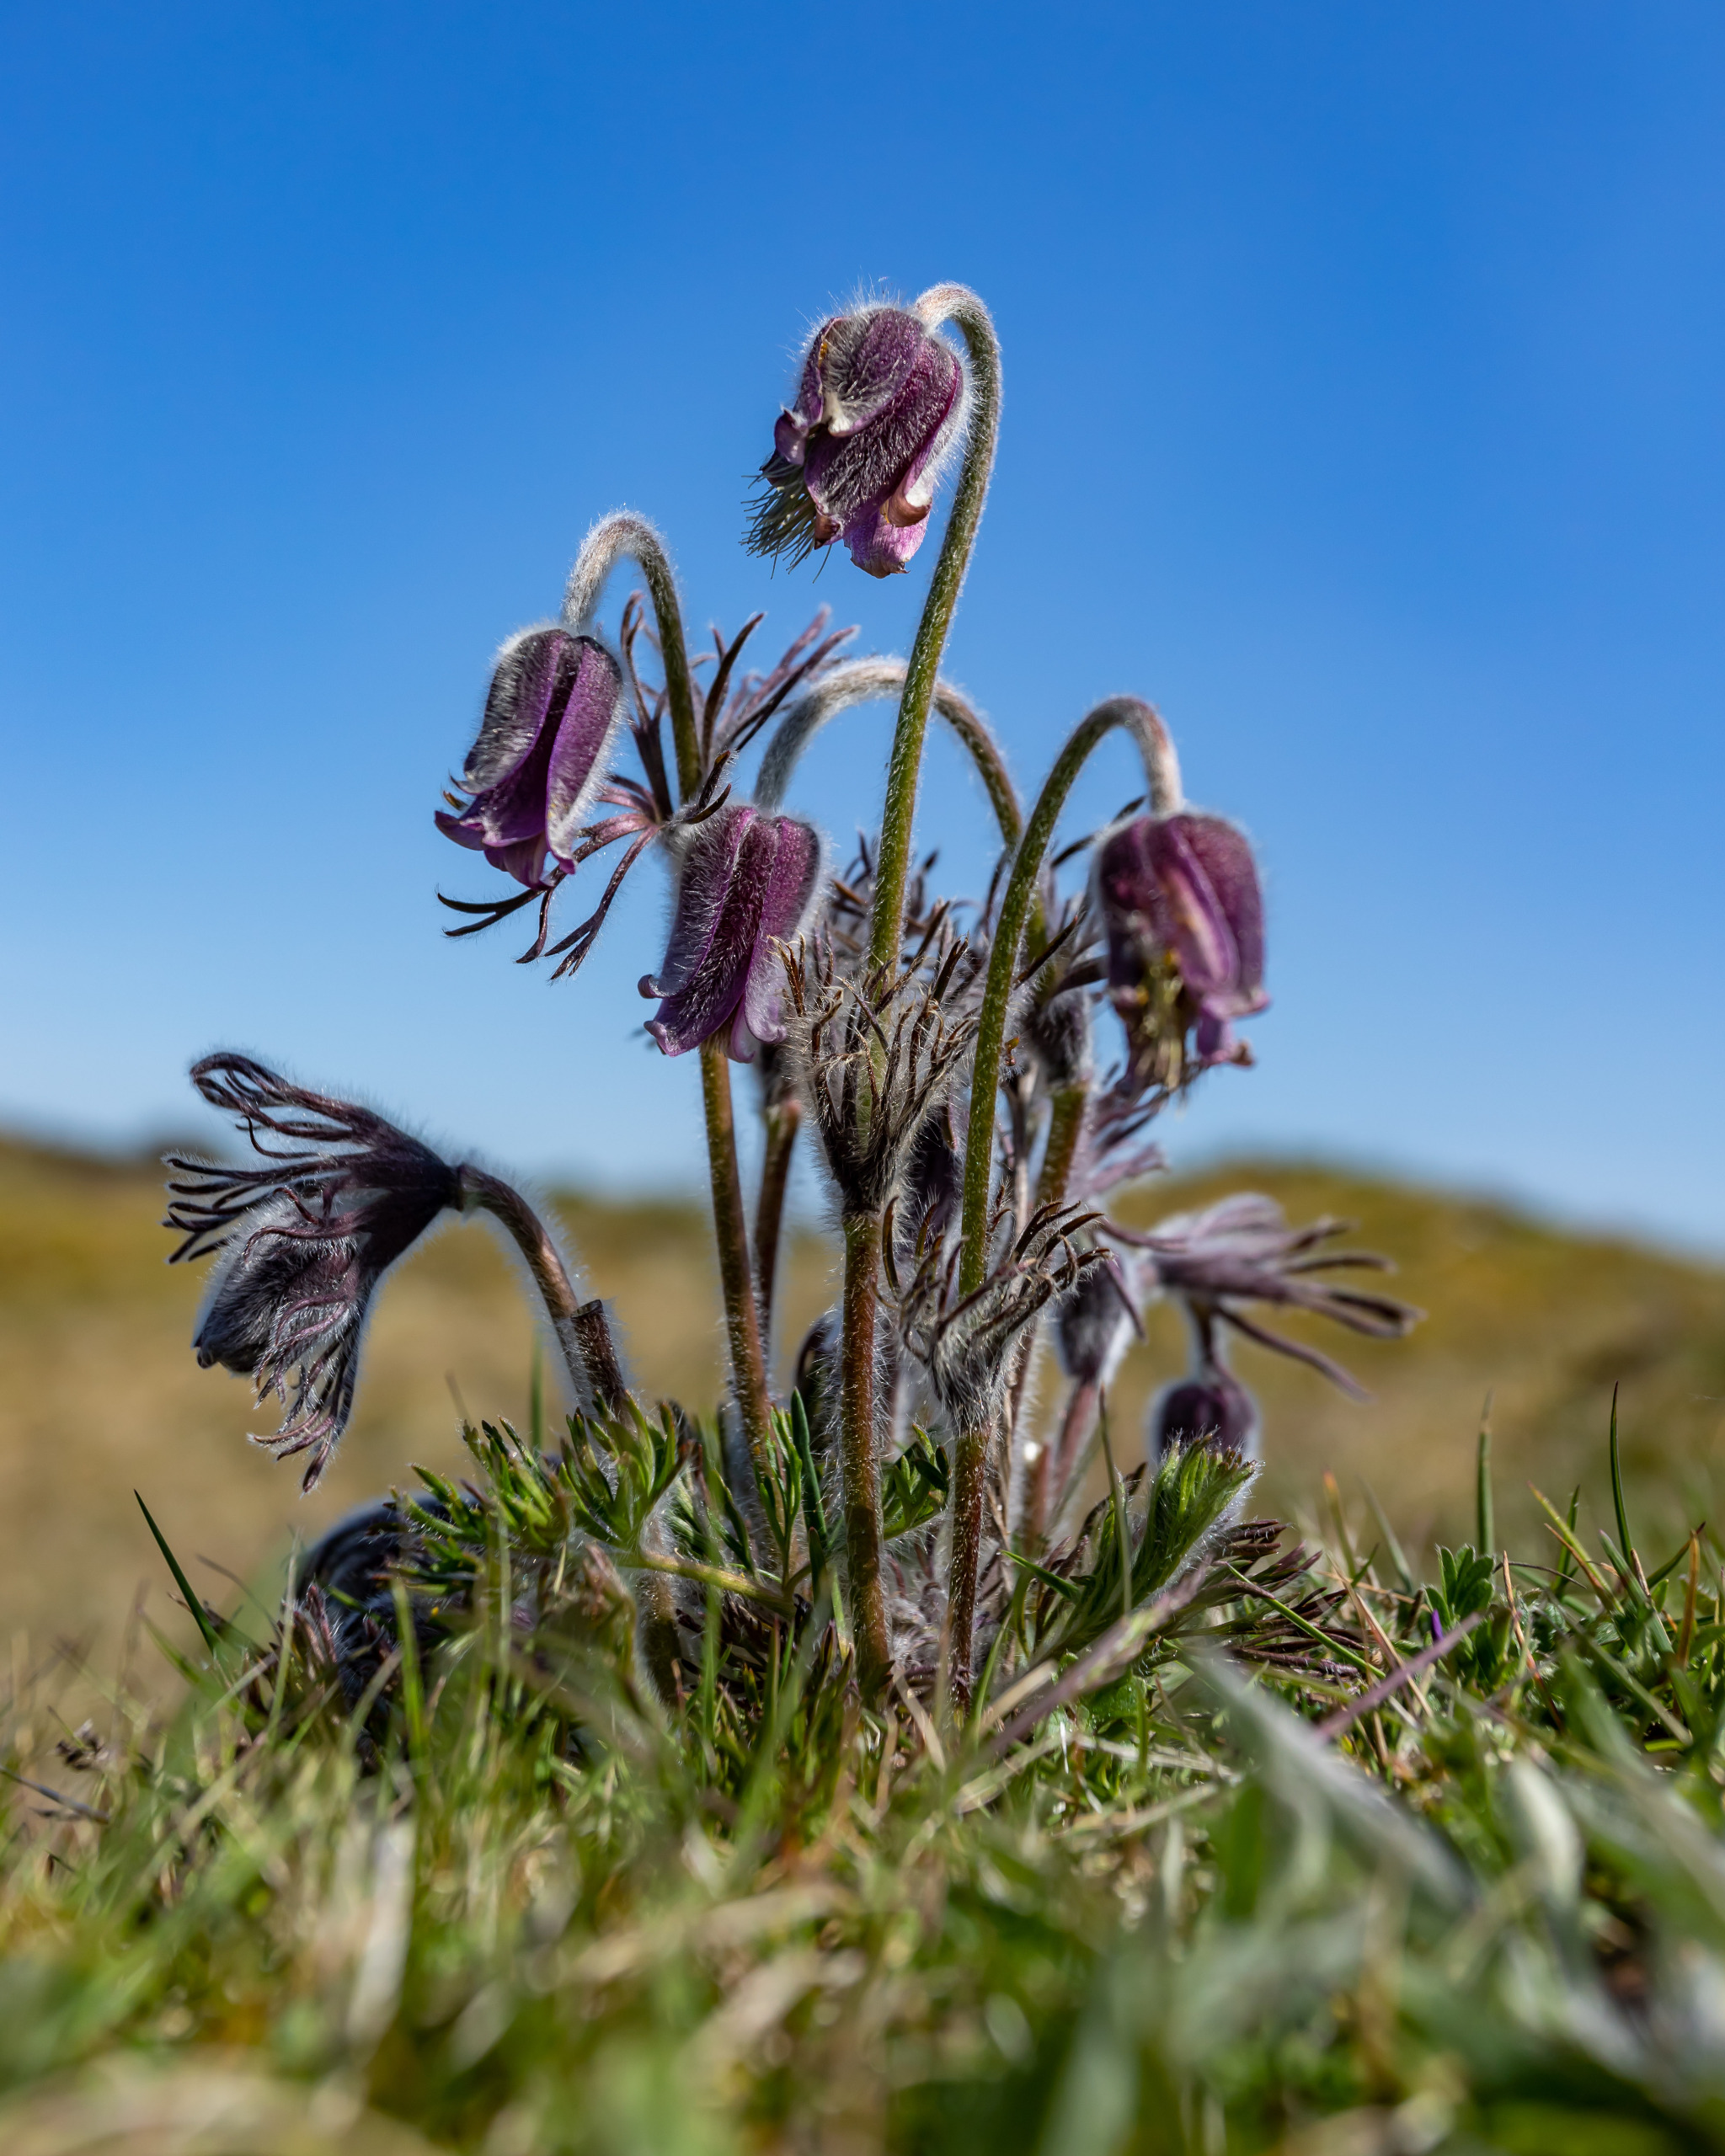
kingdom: Plantae
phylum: Tracheophyta
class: Magnoliopsida
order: Ranunculales
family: Ranunculaceae
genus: Pulsatilla
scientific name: Pulsatilla pratensis
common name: Nikkende kobjælde
